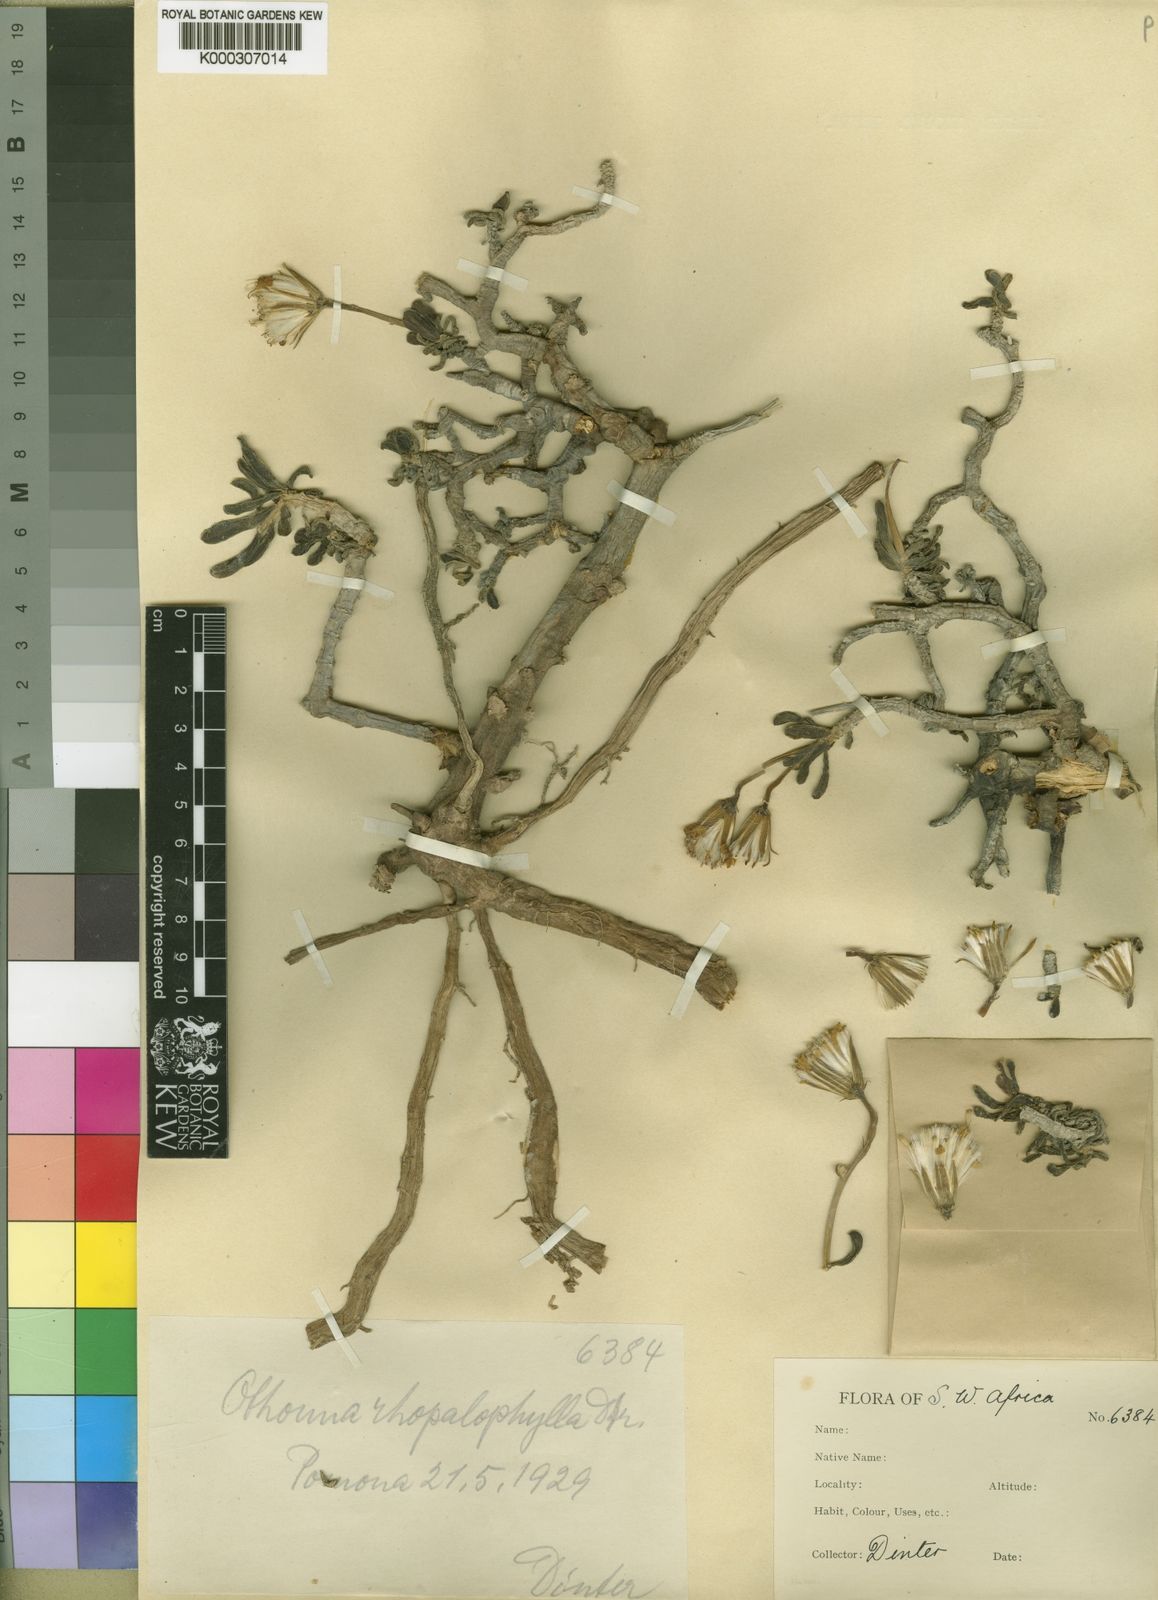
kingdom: Plantae
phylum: Tracheophyta
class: Magnoliopsida
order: Asterales
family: Asteraceae
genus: Senecio
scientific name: Senecio alooides
